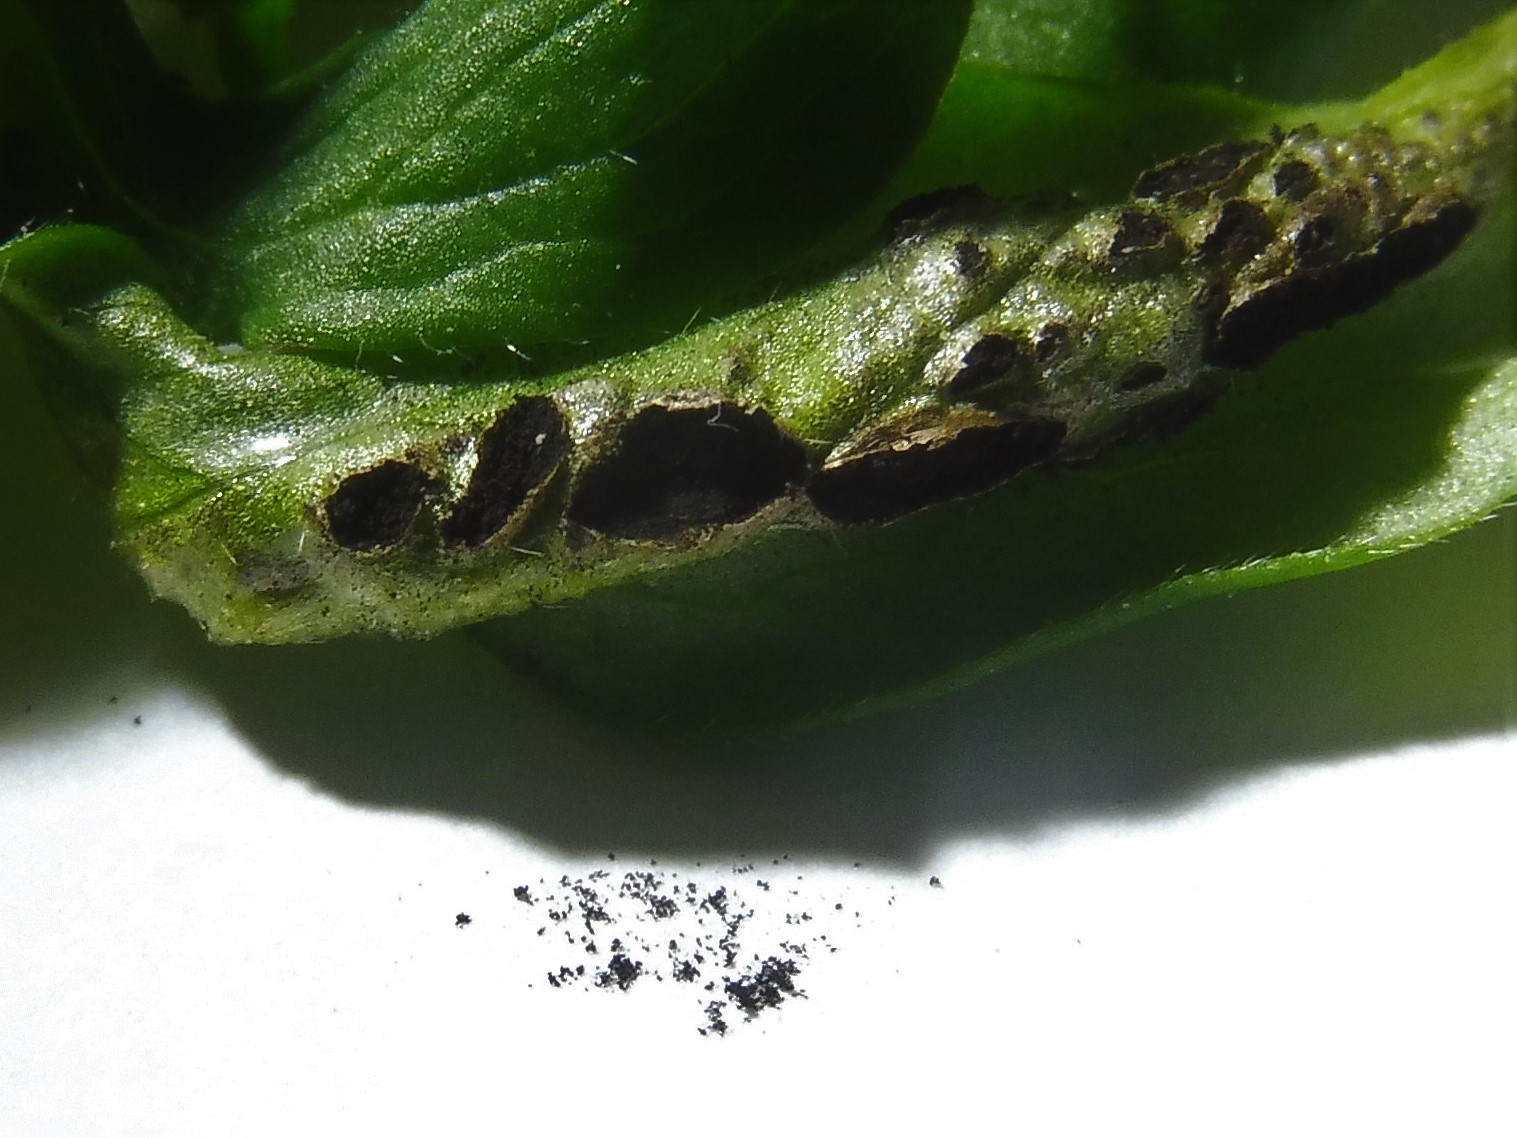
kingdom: Fungi
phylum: Basidiomycota
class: Ustilaginomycetes
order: Urocystidales
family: Urocystidaceae
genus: Urocystis
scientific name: Urocystis anemones
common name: anemone-brand
